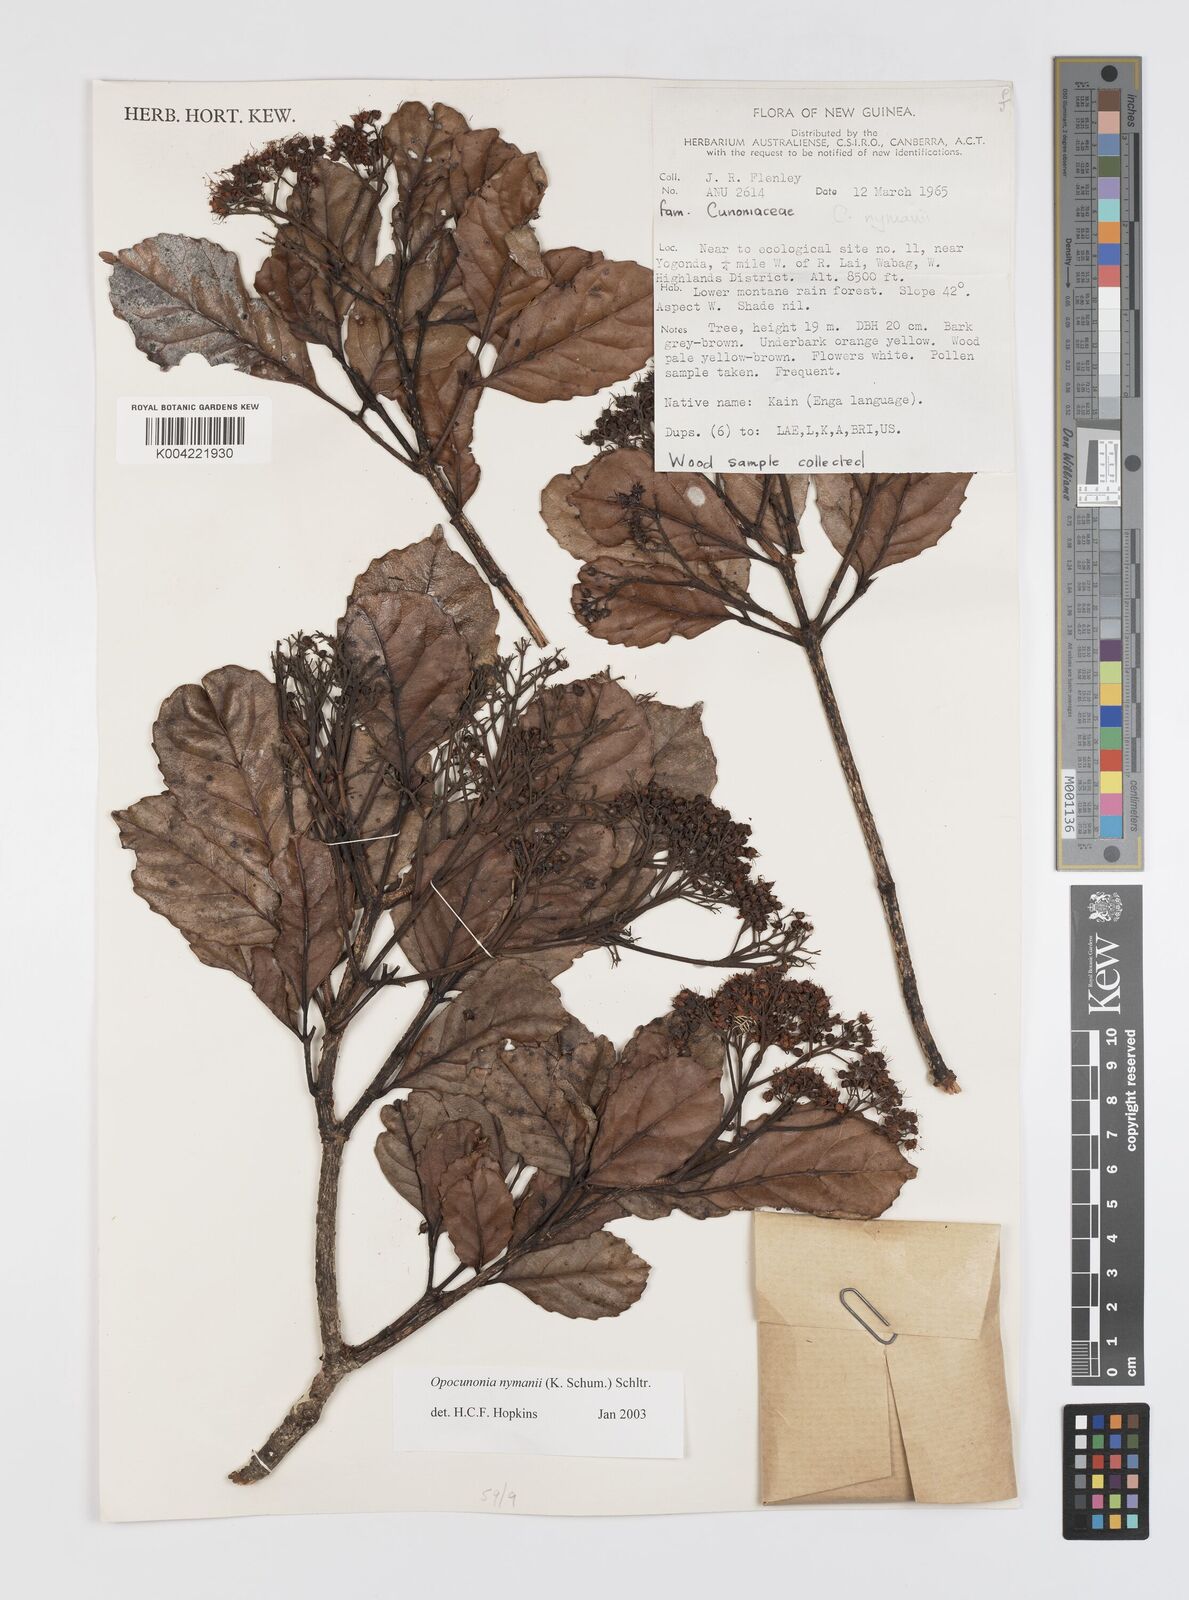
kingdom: Plantae
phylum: Tracheophyta
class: Magnoliopsida
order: Oxalidales
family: Cunoniaceae
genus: Opocunonia
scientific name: Opocunonia nymanii
